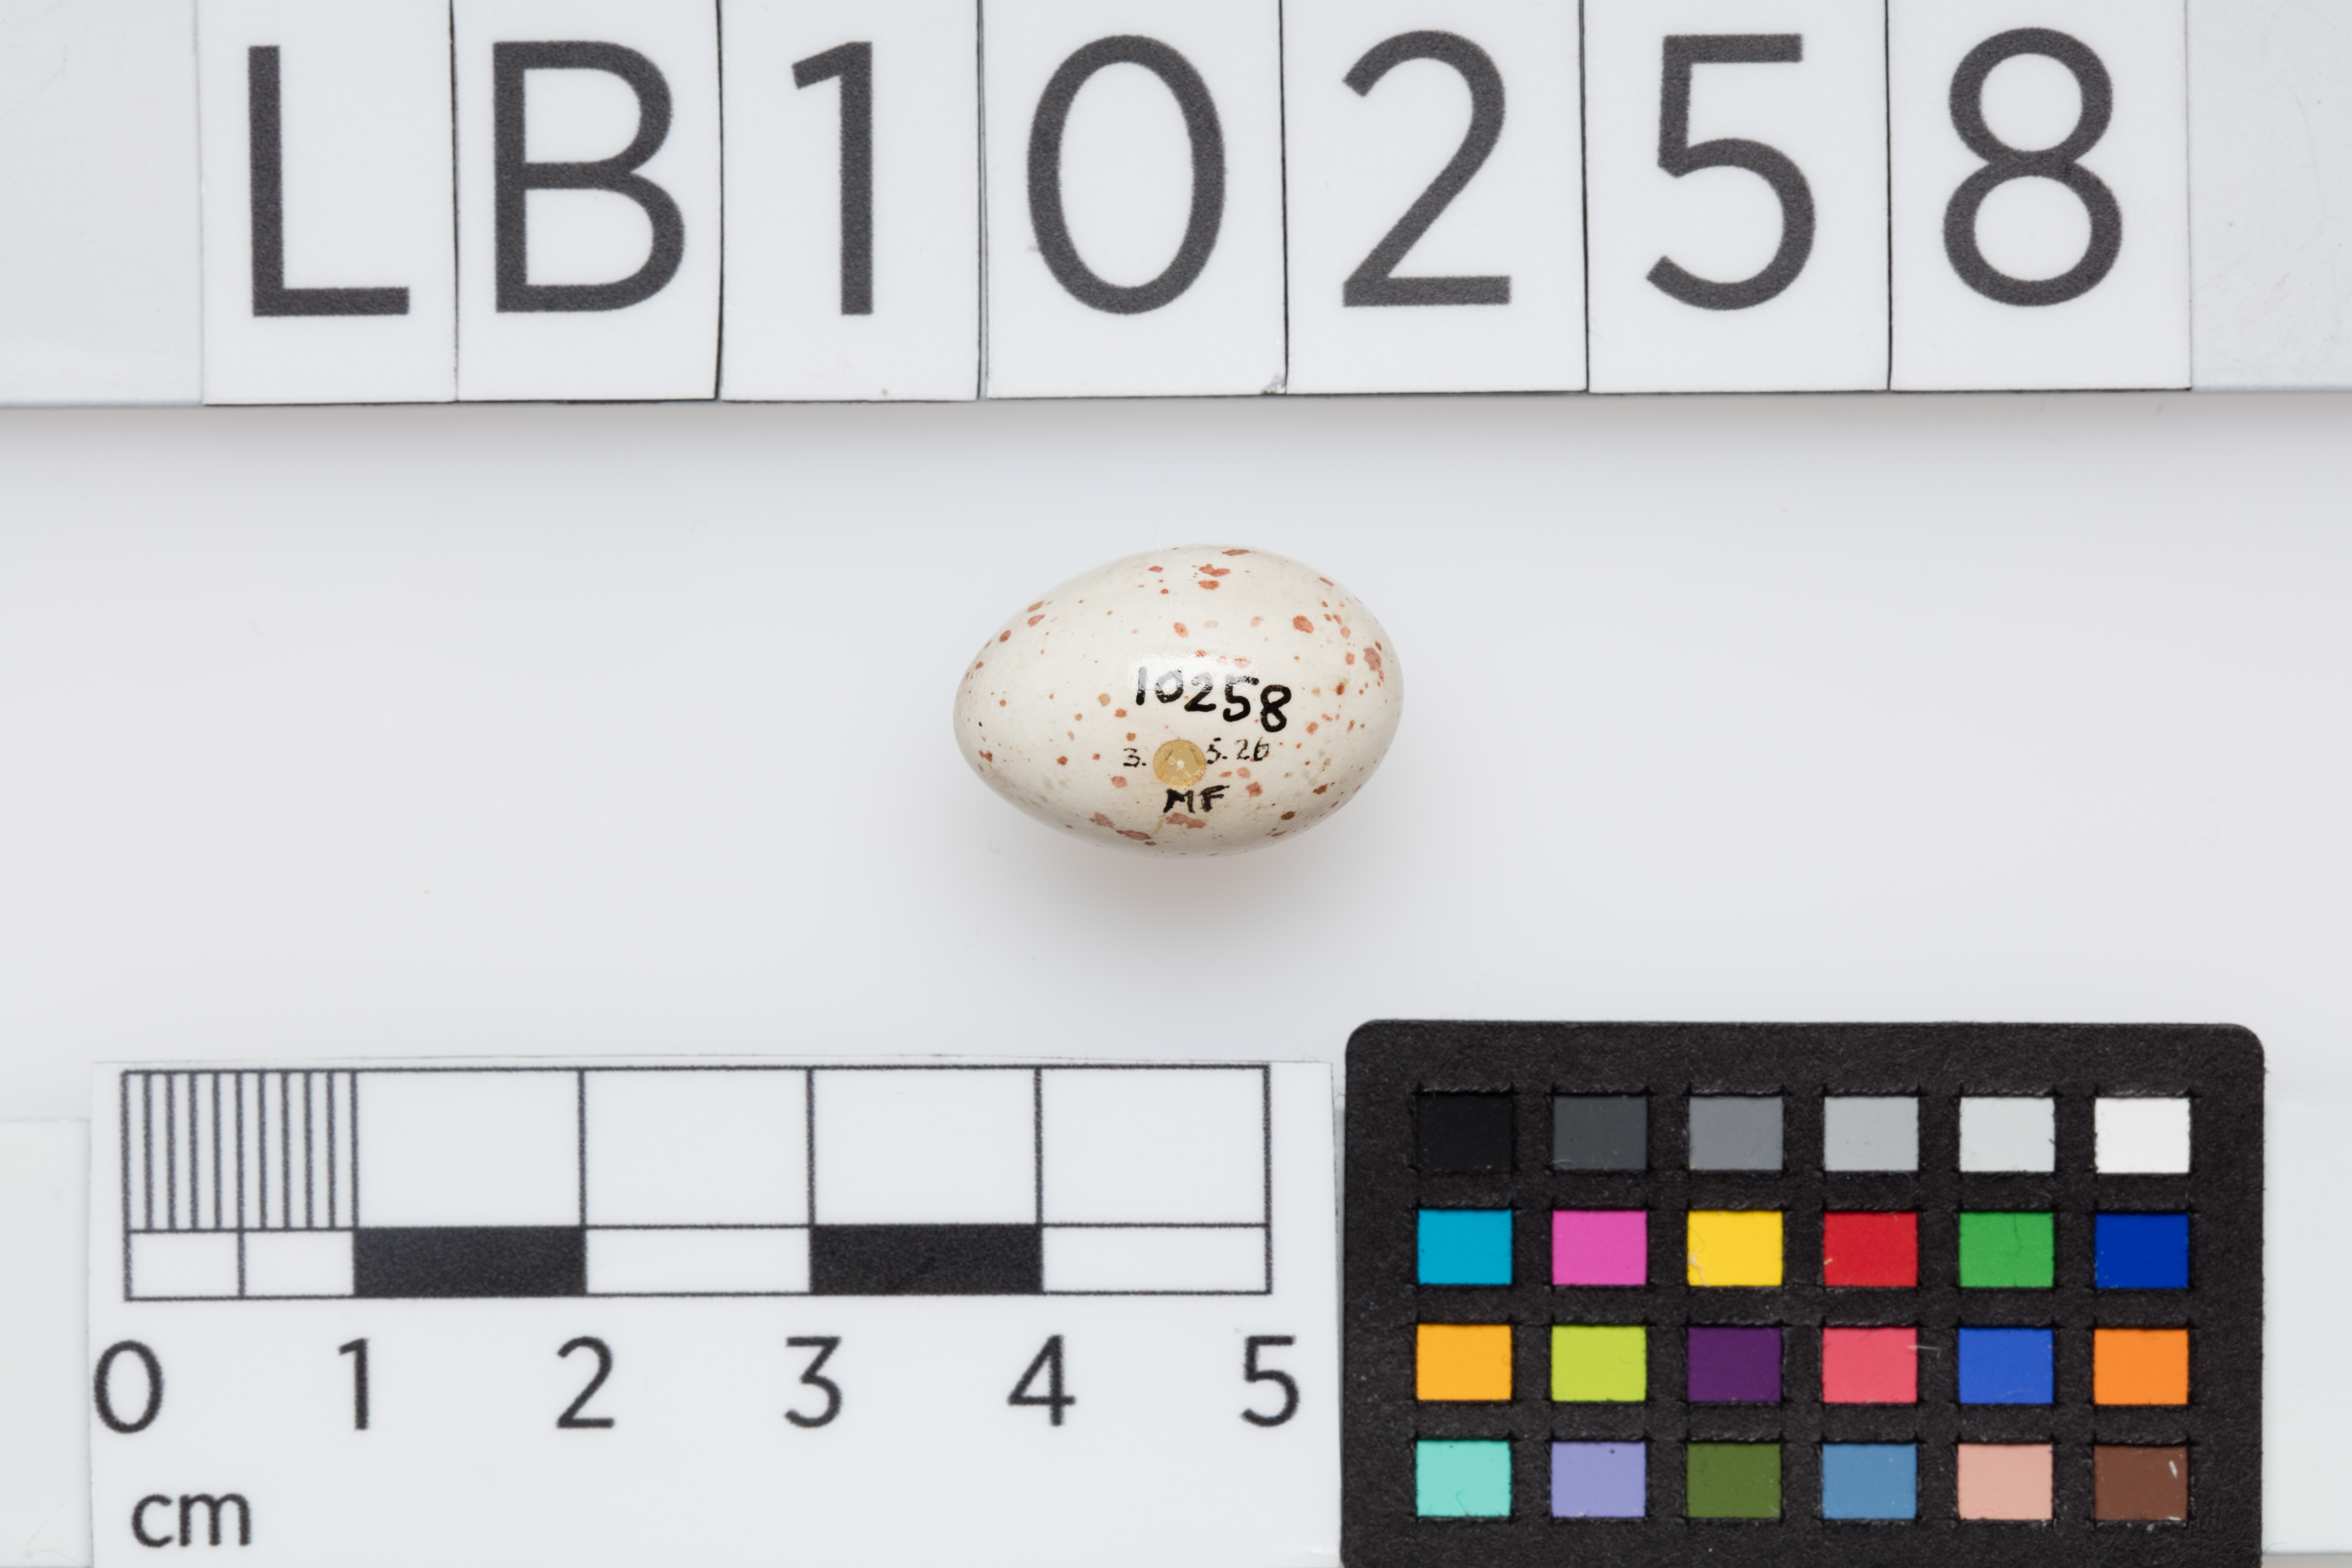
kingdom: Animalia
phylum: Chordata
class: Aves
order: Passeriformes
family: Paridae
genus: Parus
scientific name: Parus major
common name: Great tit
